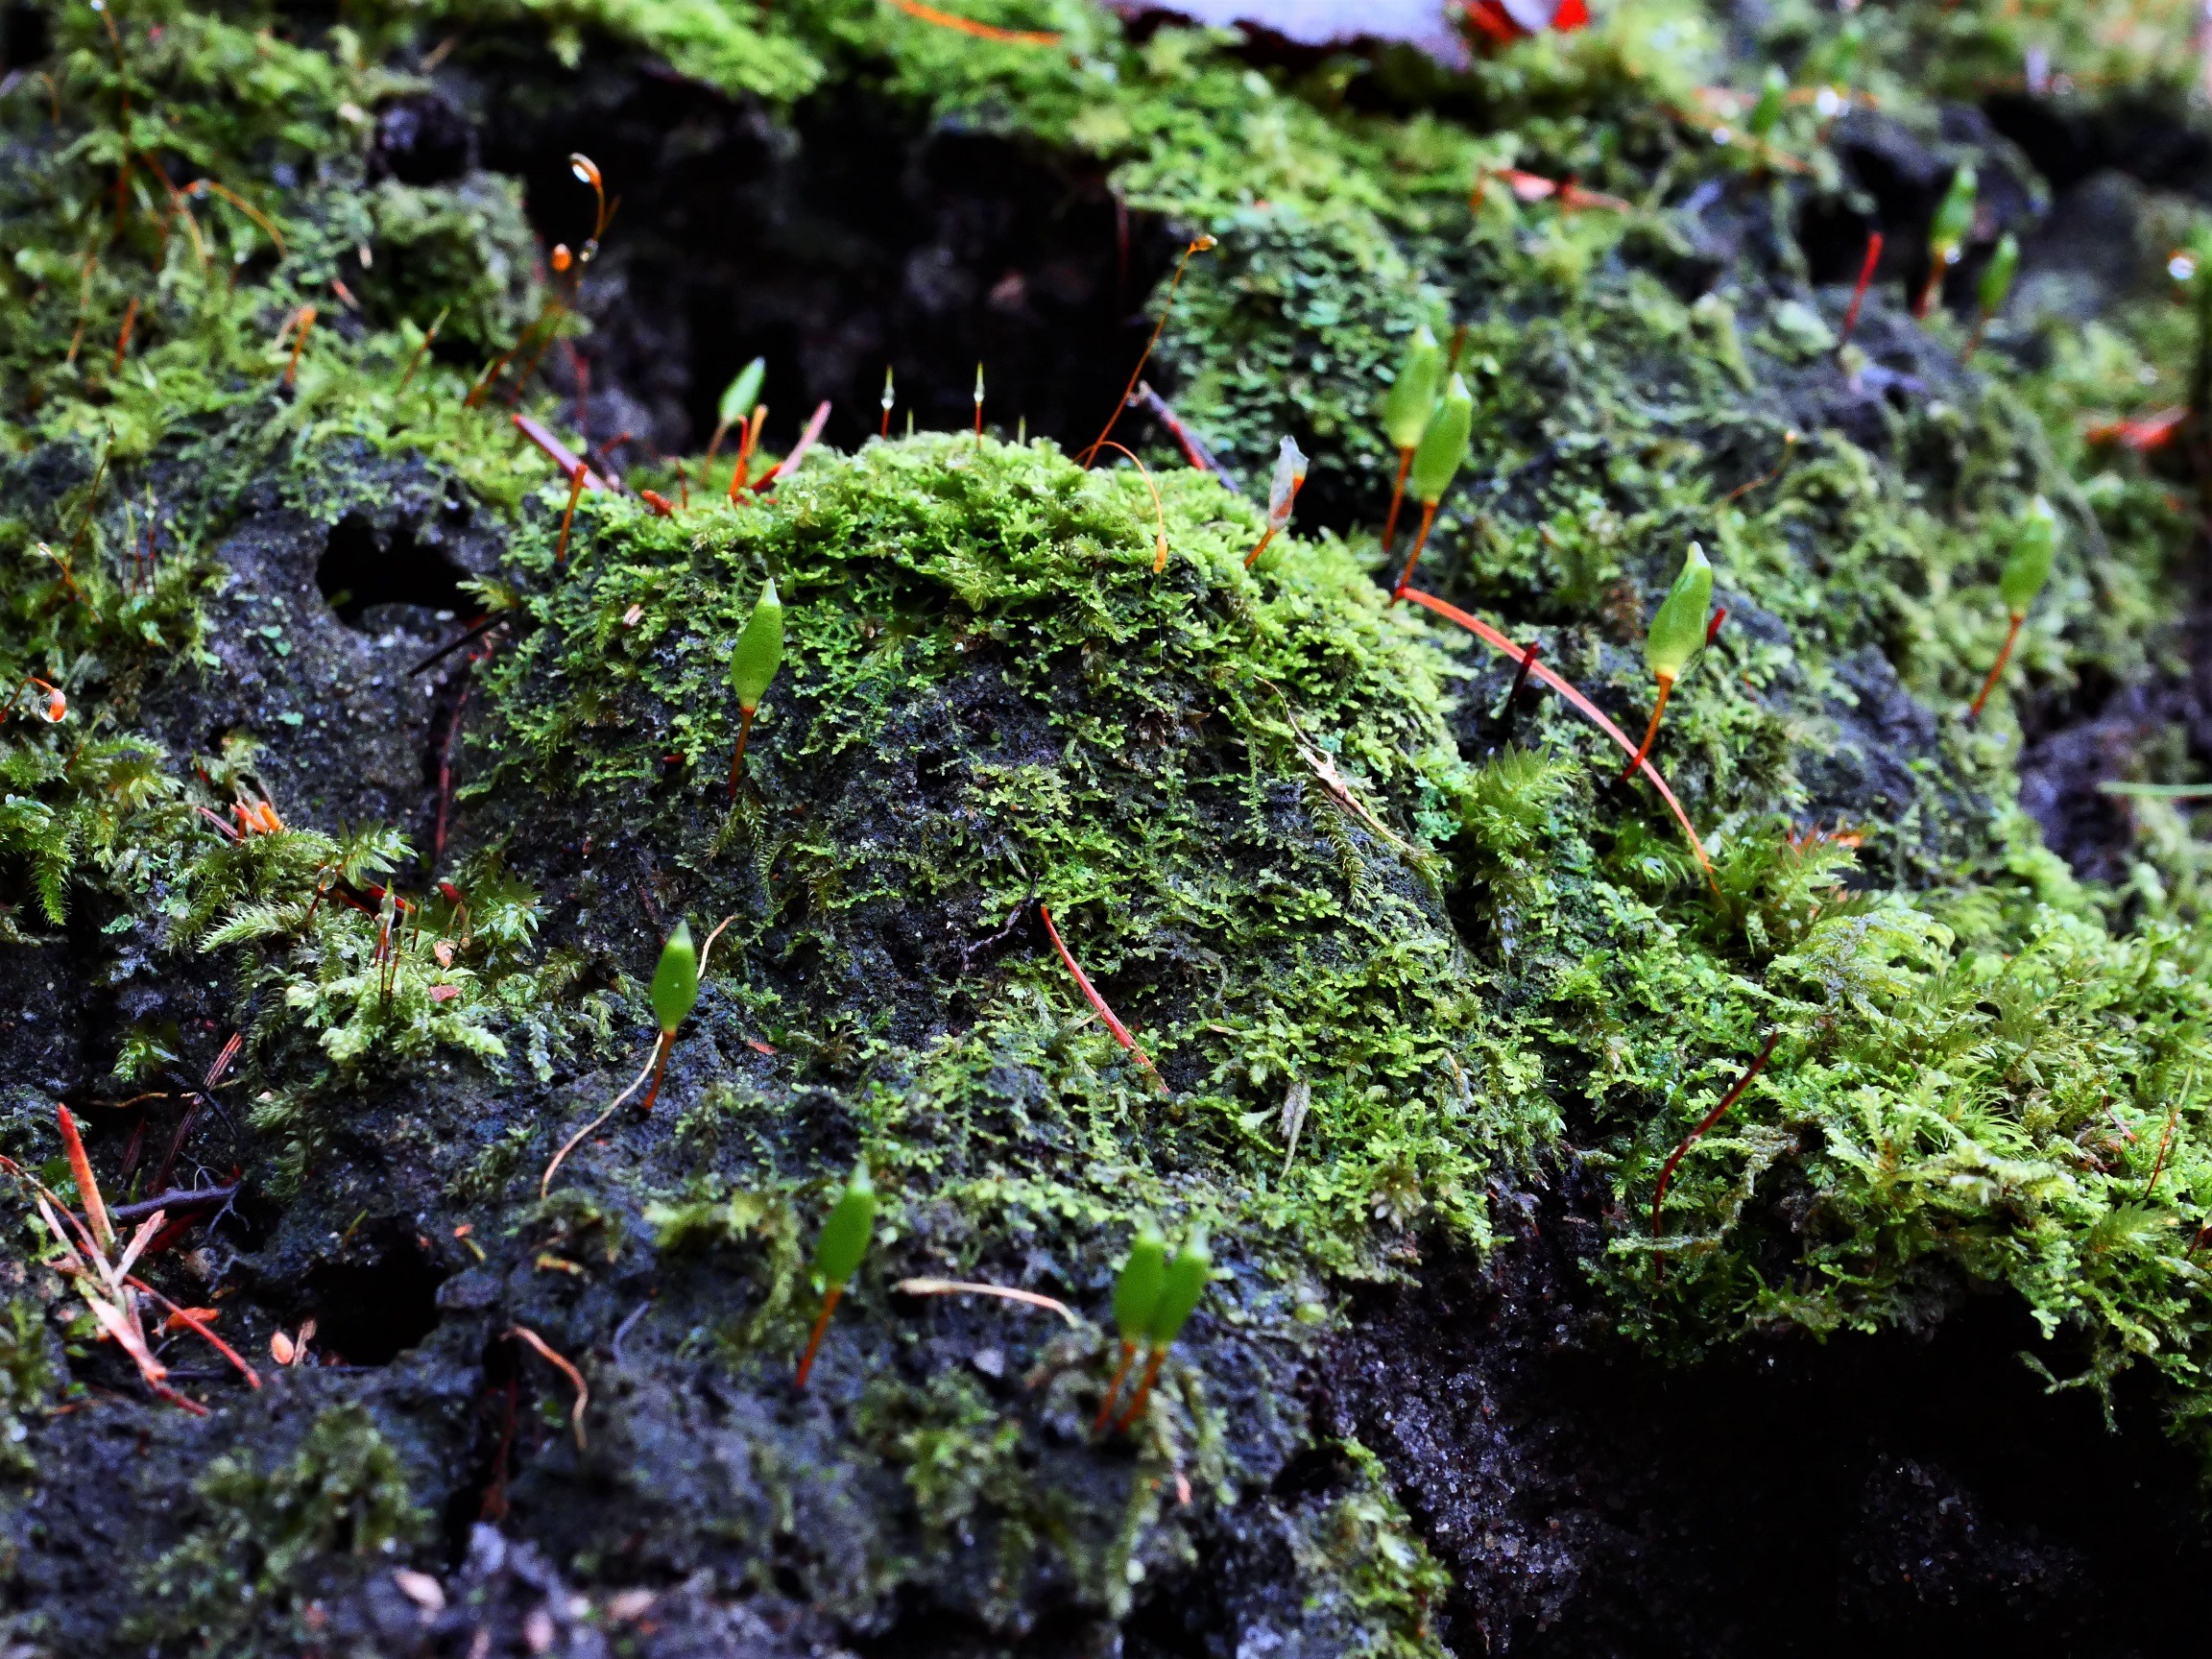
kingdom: Plantae
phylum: Bryophyta
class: Bryopsida
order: Buxbaumiales
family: Buxbaumiaceae
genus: Buxbaumia
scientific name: Buxbaumia viridis
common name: Grøn buxbaumia
